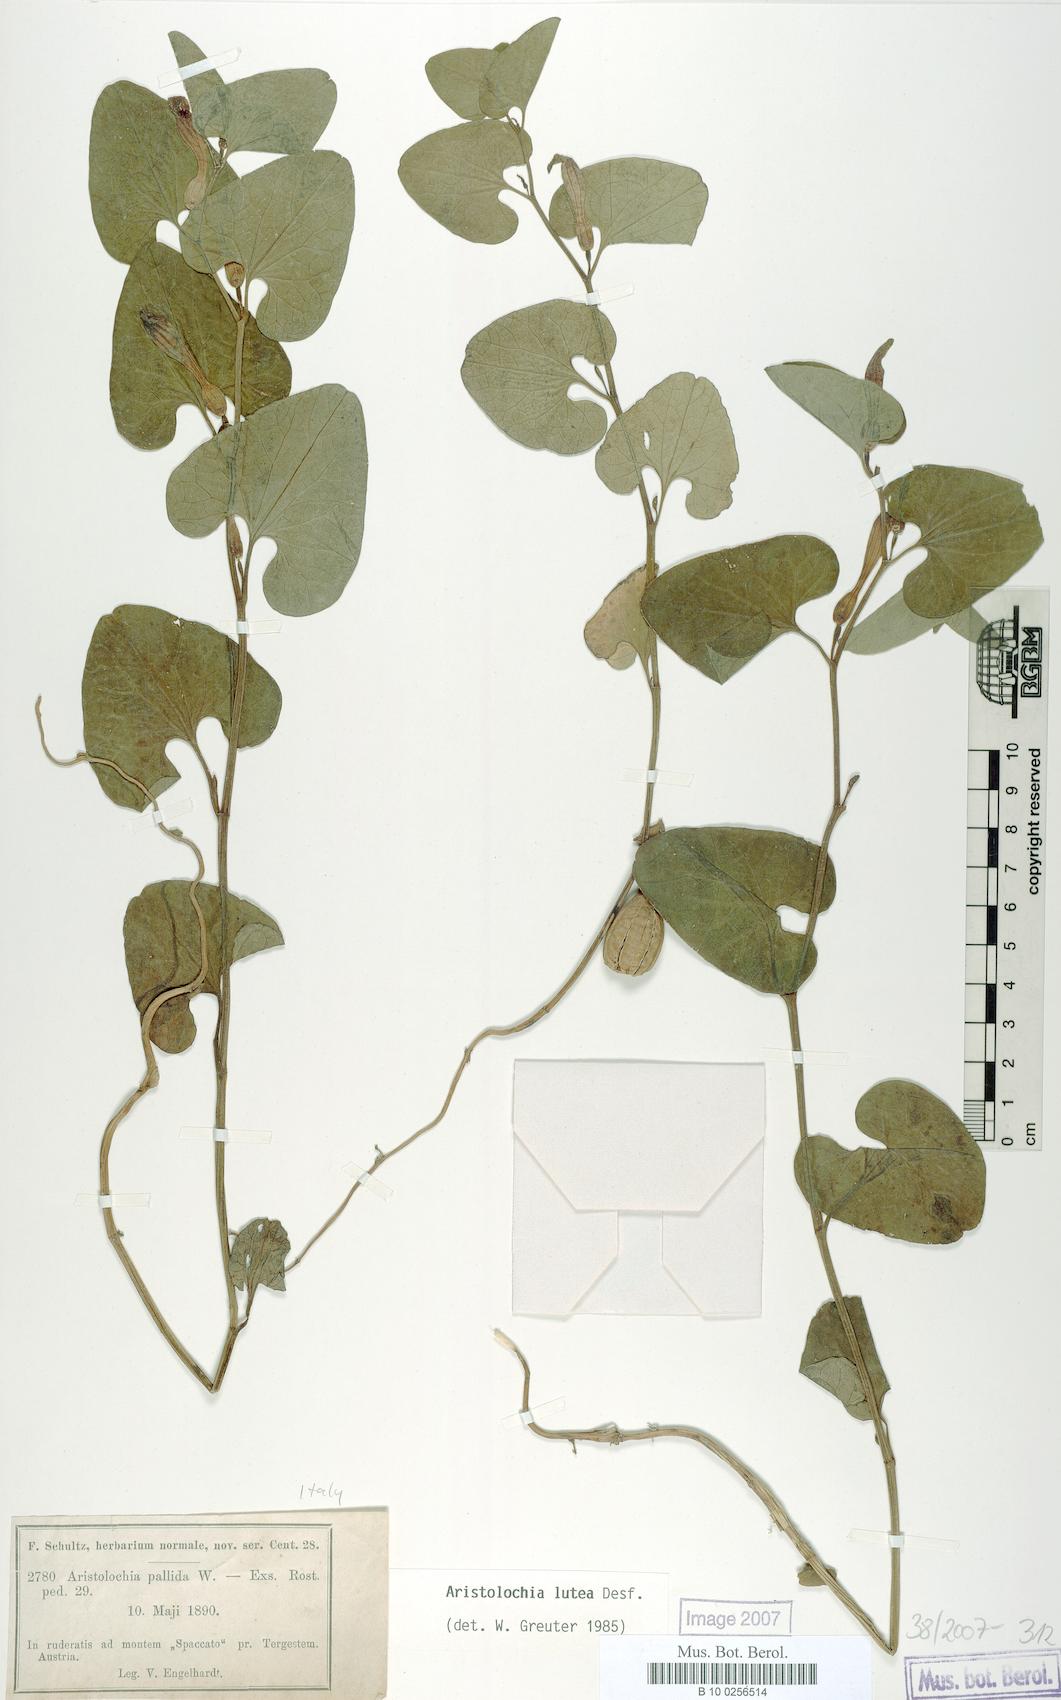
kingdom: Plantae
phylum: Tracheophyta
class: Magnoliopsida
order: Piperales
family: Aristolochiaceae
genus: Aristolochia
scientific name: Aristolochia lutea
